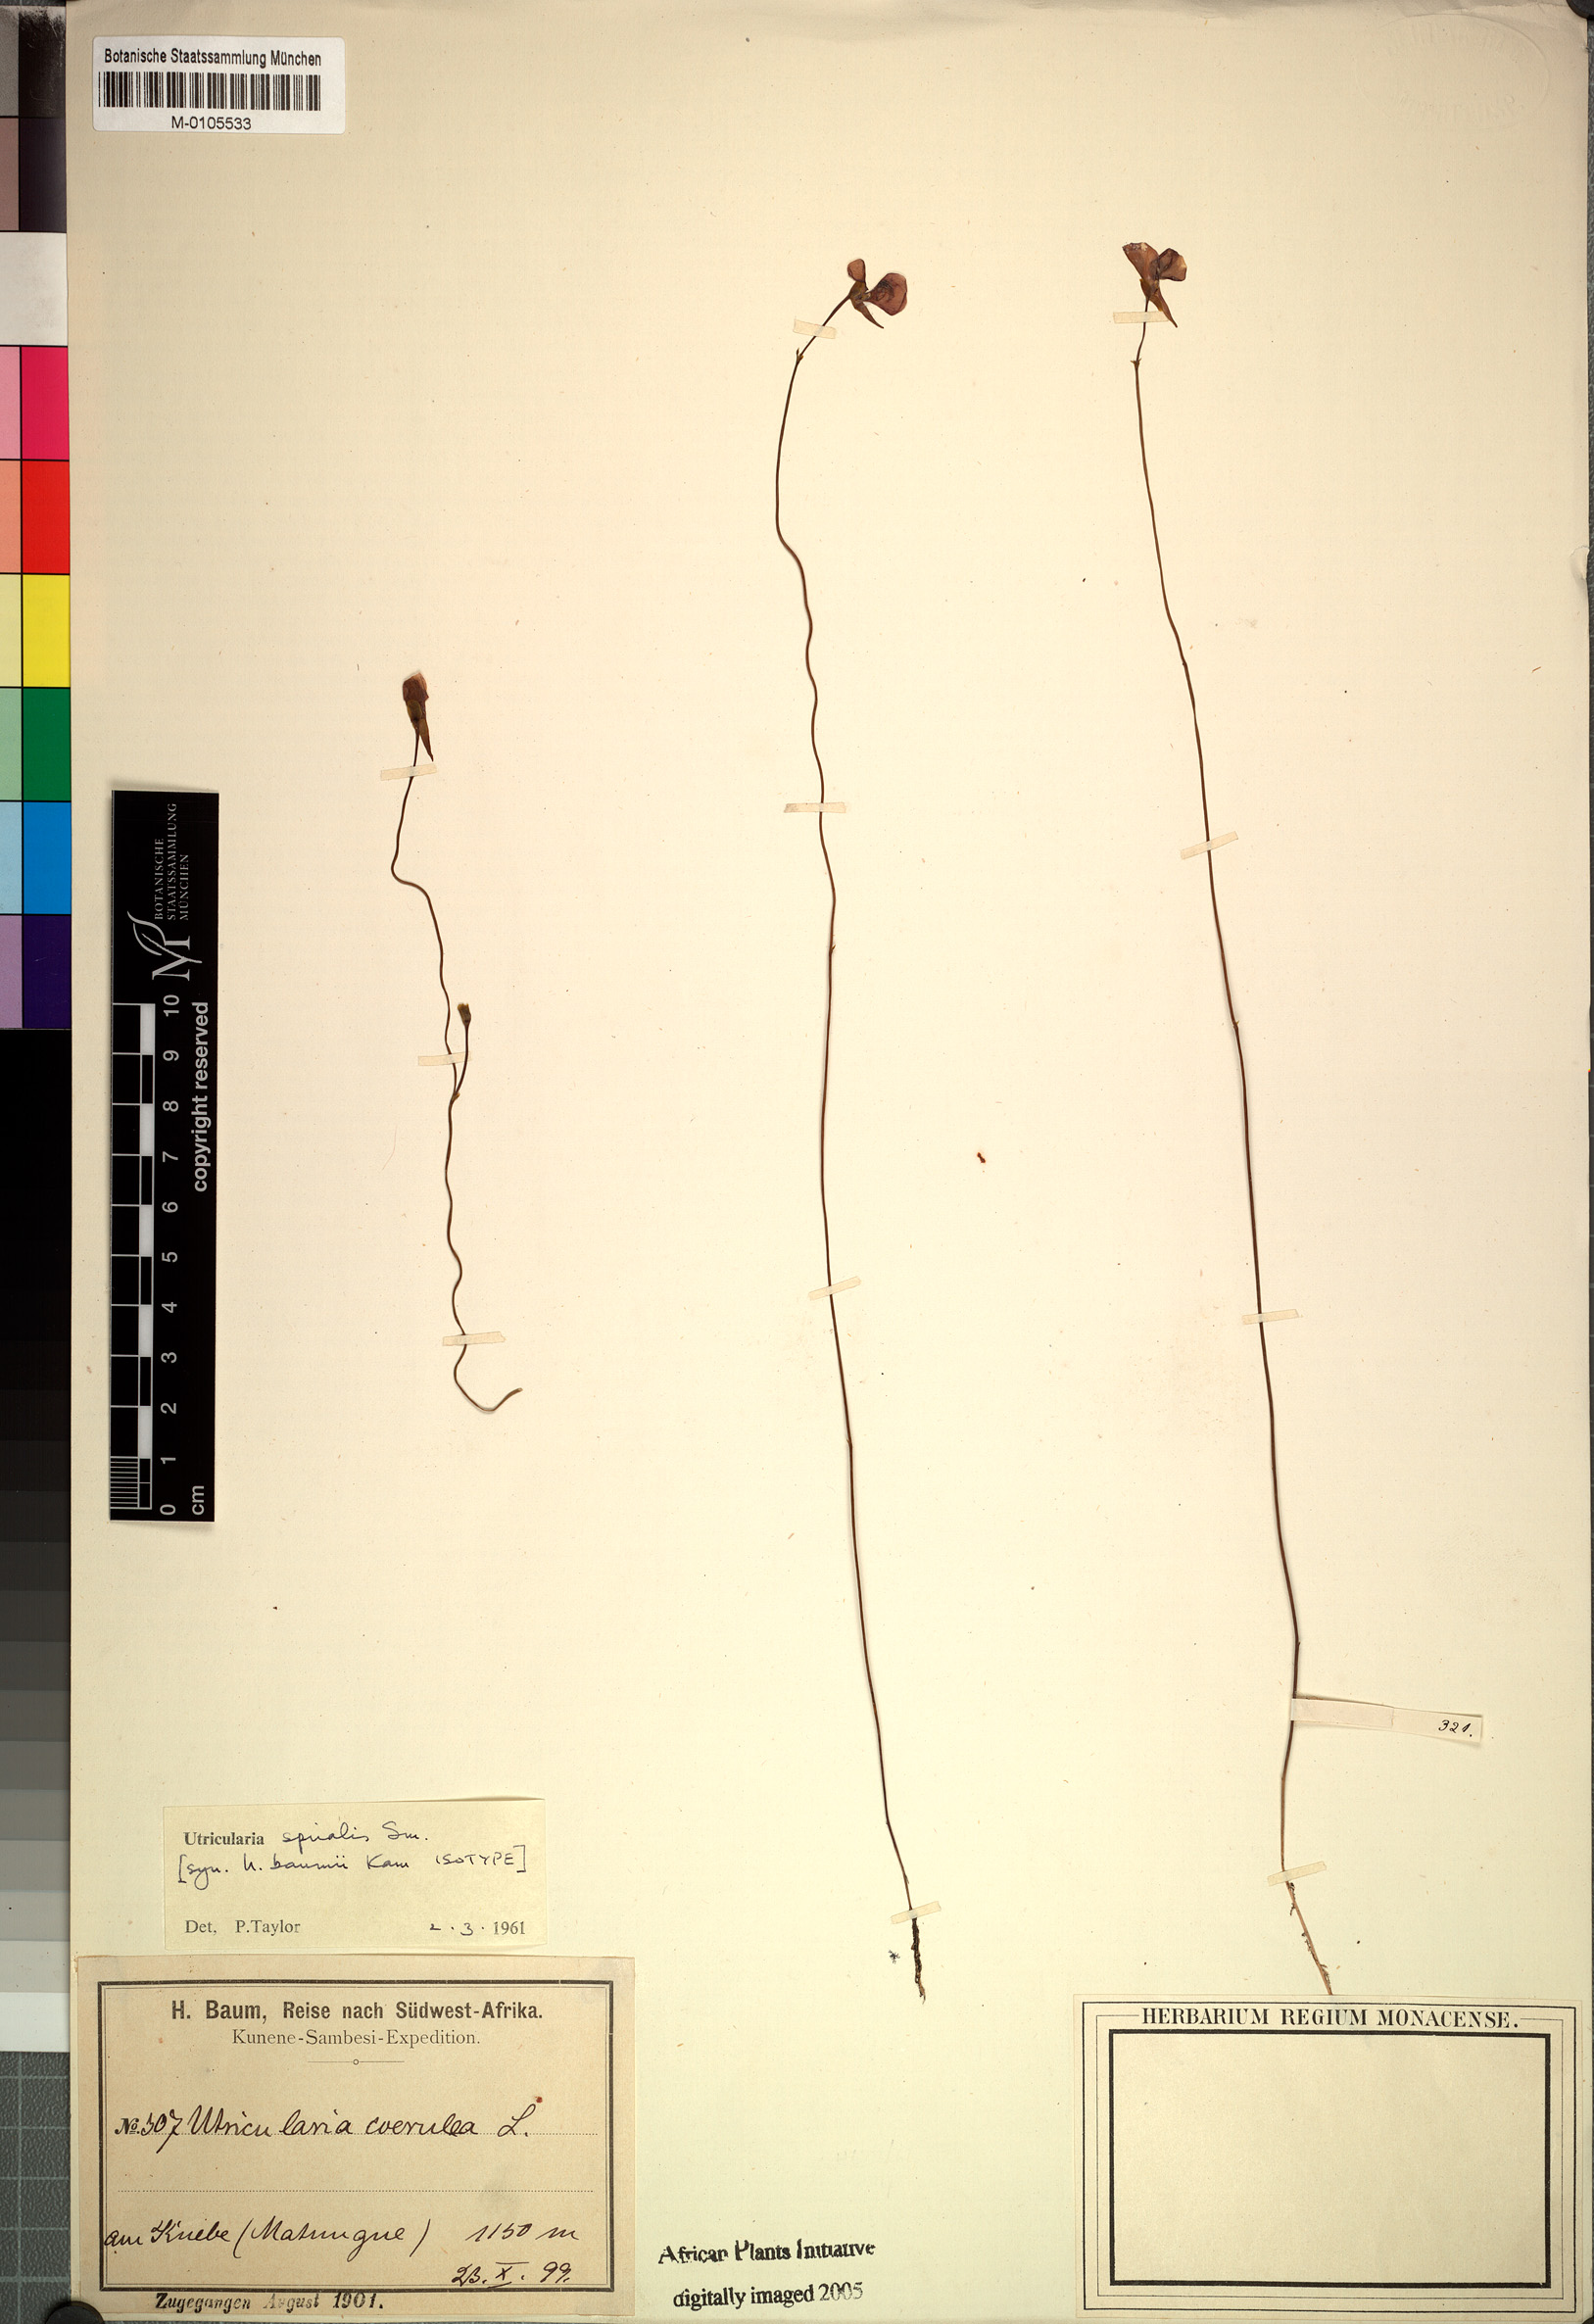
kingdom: Plantae
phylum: Tracheophyta
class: Magnoliopsida
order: Lamiales
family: Lentibulariaceae
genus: Utricularia
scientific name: Utricularia spiralis
